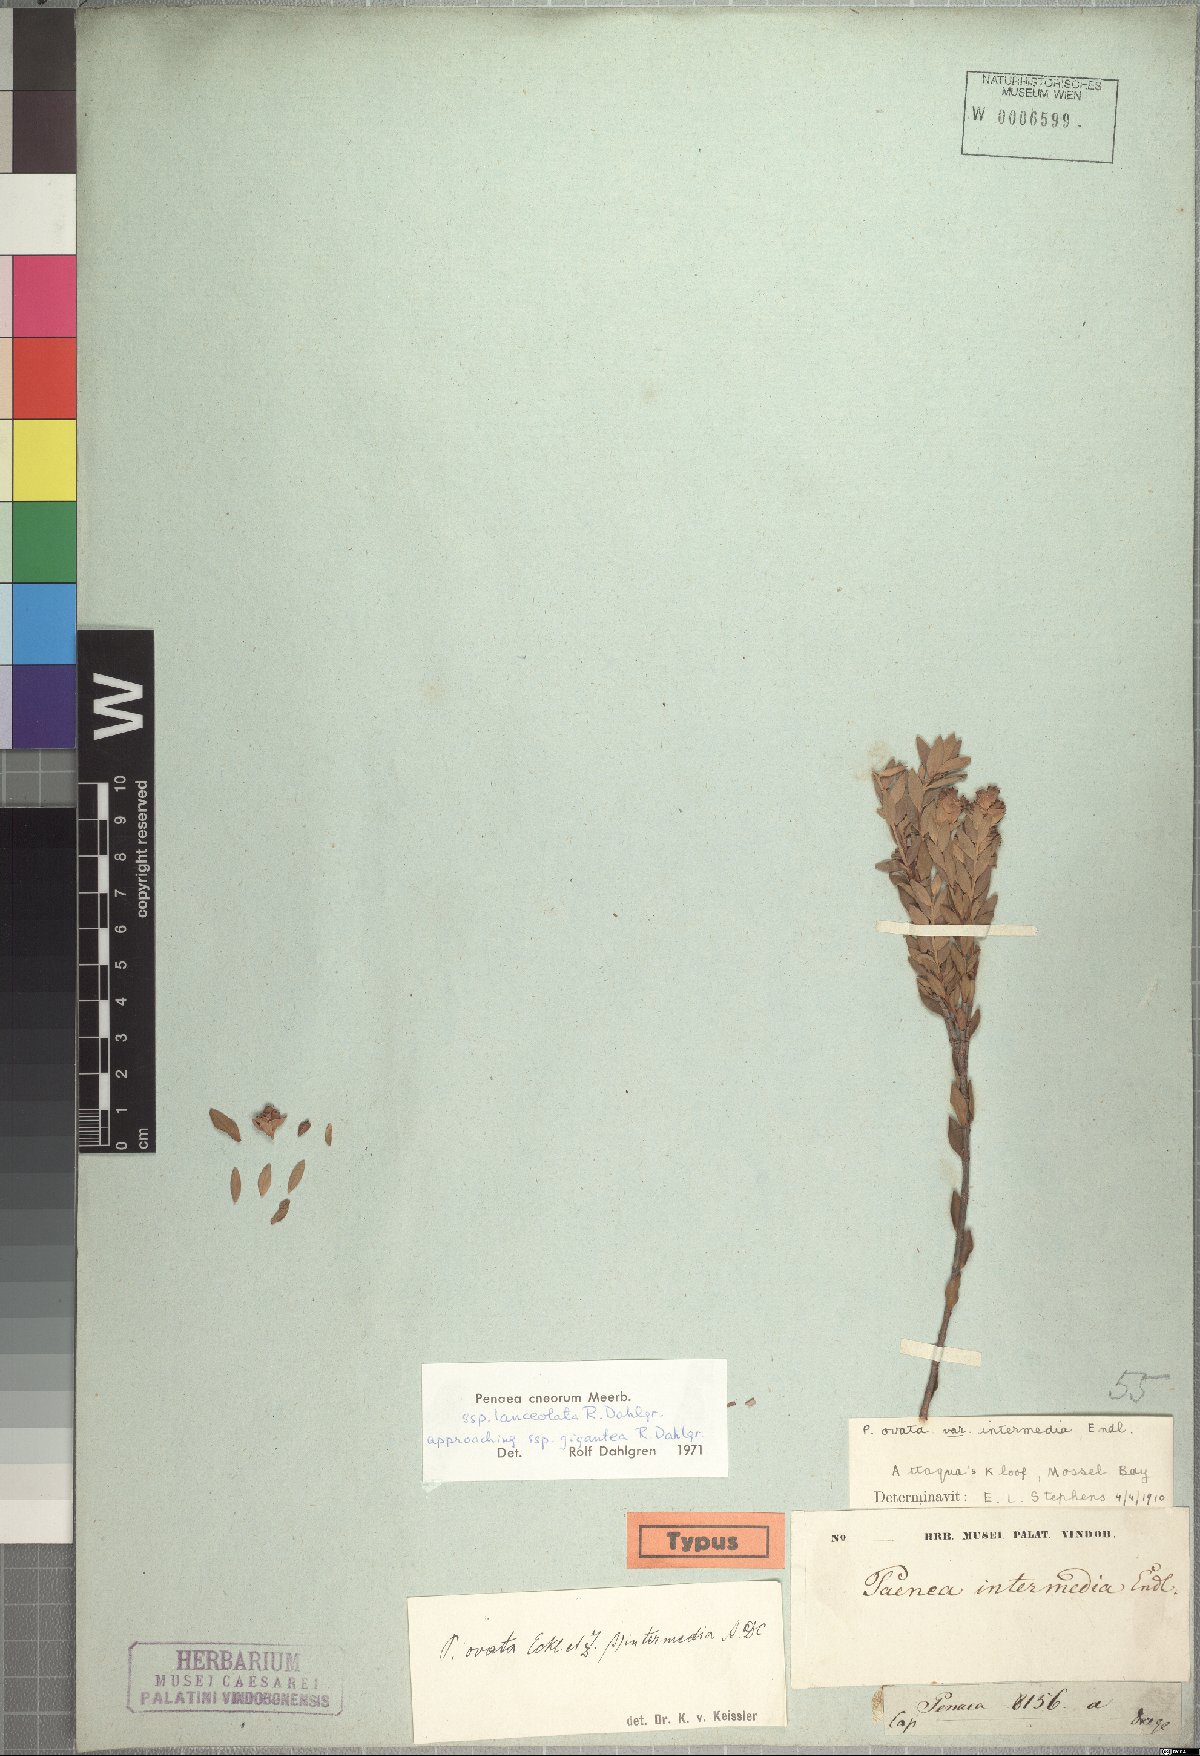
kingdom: Plantae
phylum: Tracheophyta
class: Magnoliopsida
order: Myrtales
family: Penaeaceae
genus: Penaea
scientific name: Penaea cneorum
